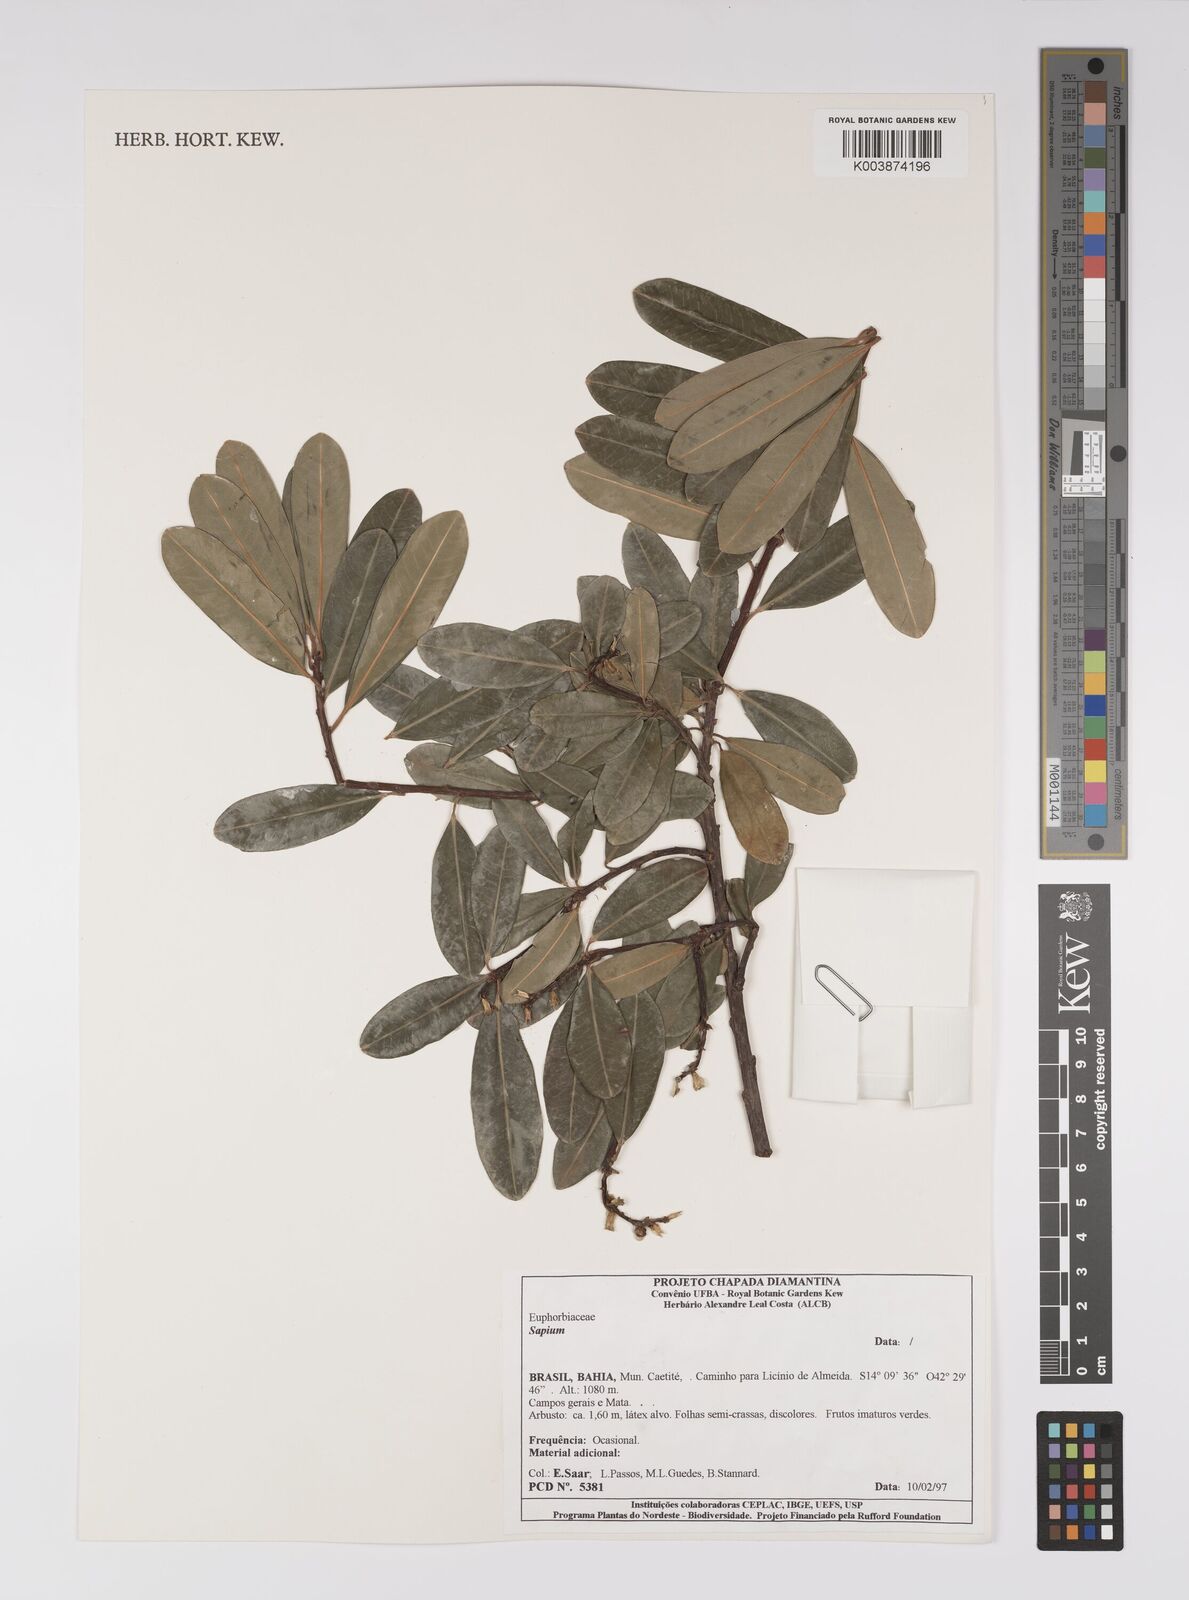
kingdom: Plantae
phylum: Tracheophyta
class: Magnoliopsida
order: Malpighiales
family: Euphorbiaceae
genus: Sapium
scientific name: Sapium
